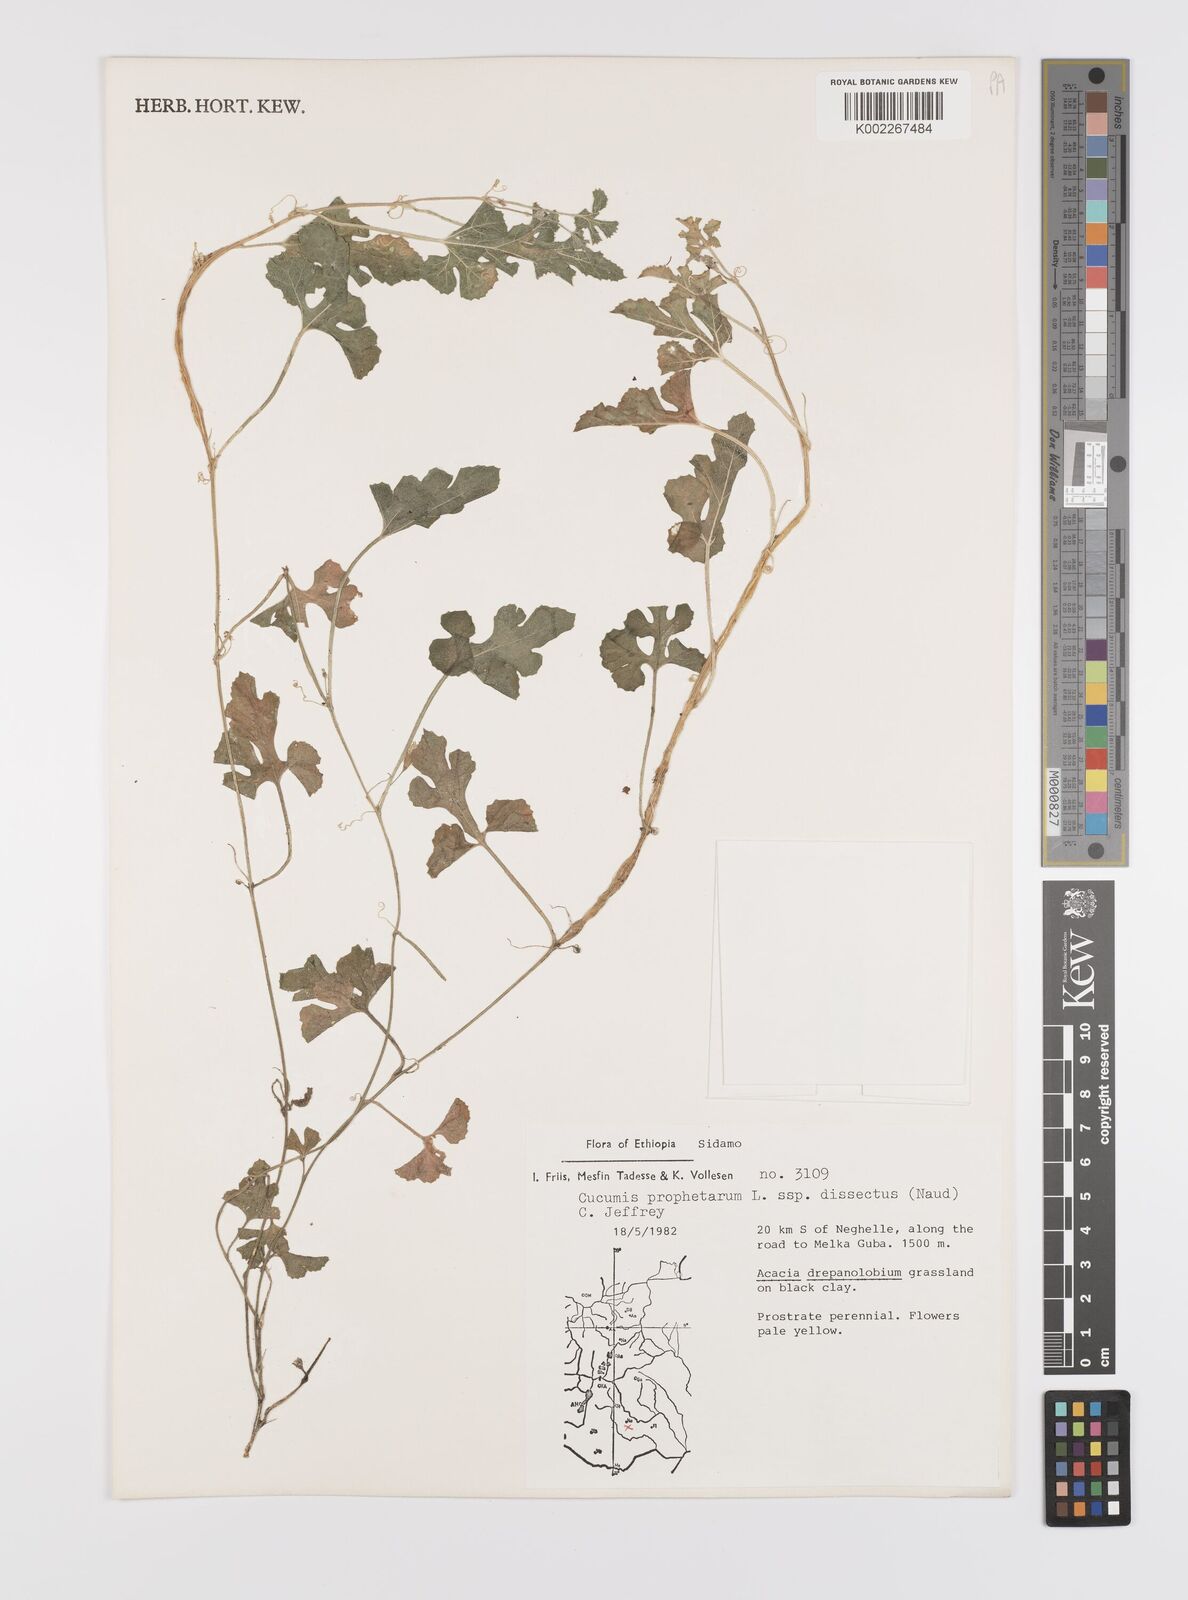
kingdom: Plantae
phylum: Tracheophyta
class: Magnoliopsida
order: Cucurbitales
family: Cucurbitaceae
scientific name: Cucurbitaceae
